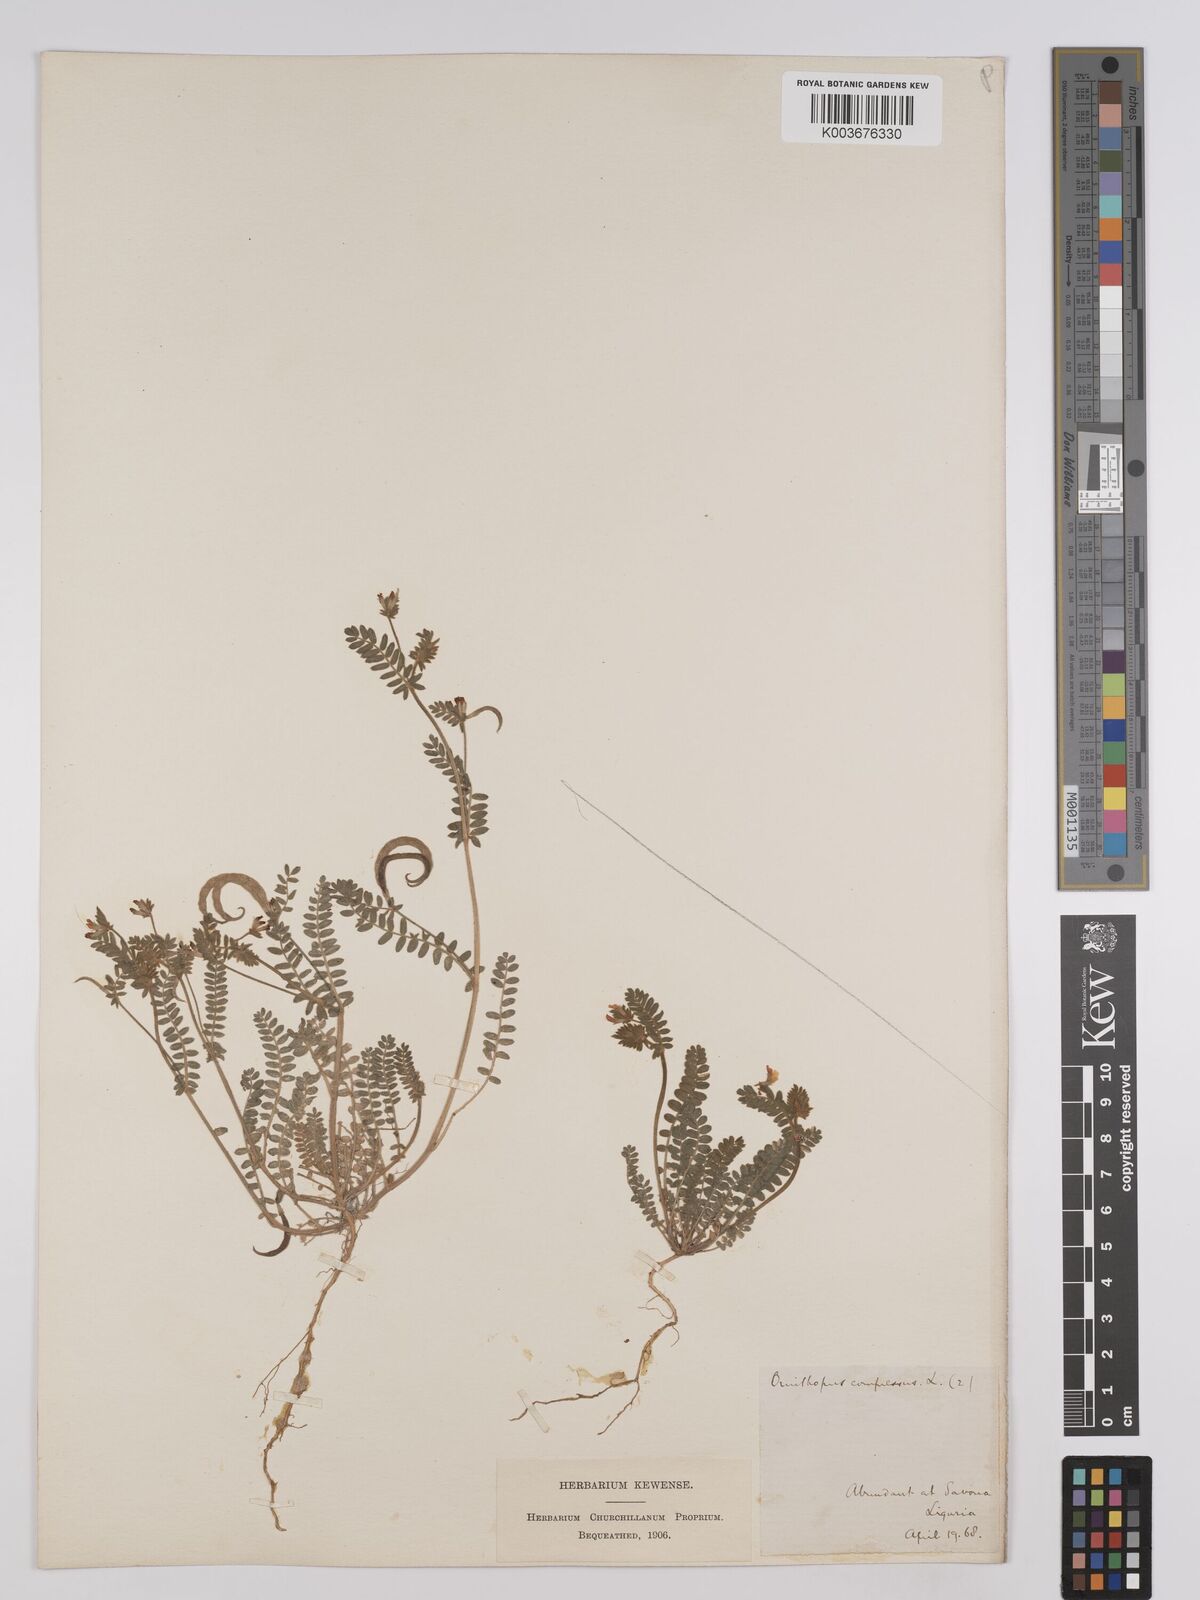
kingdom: Plantae
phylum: Tracheophyta
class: Magnoliopsida
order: Fabales
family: Fabaceae
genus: Ornithopus
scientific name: Ornithopus compressus
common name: Yellow serradella
